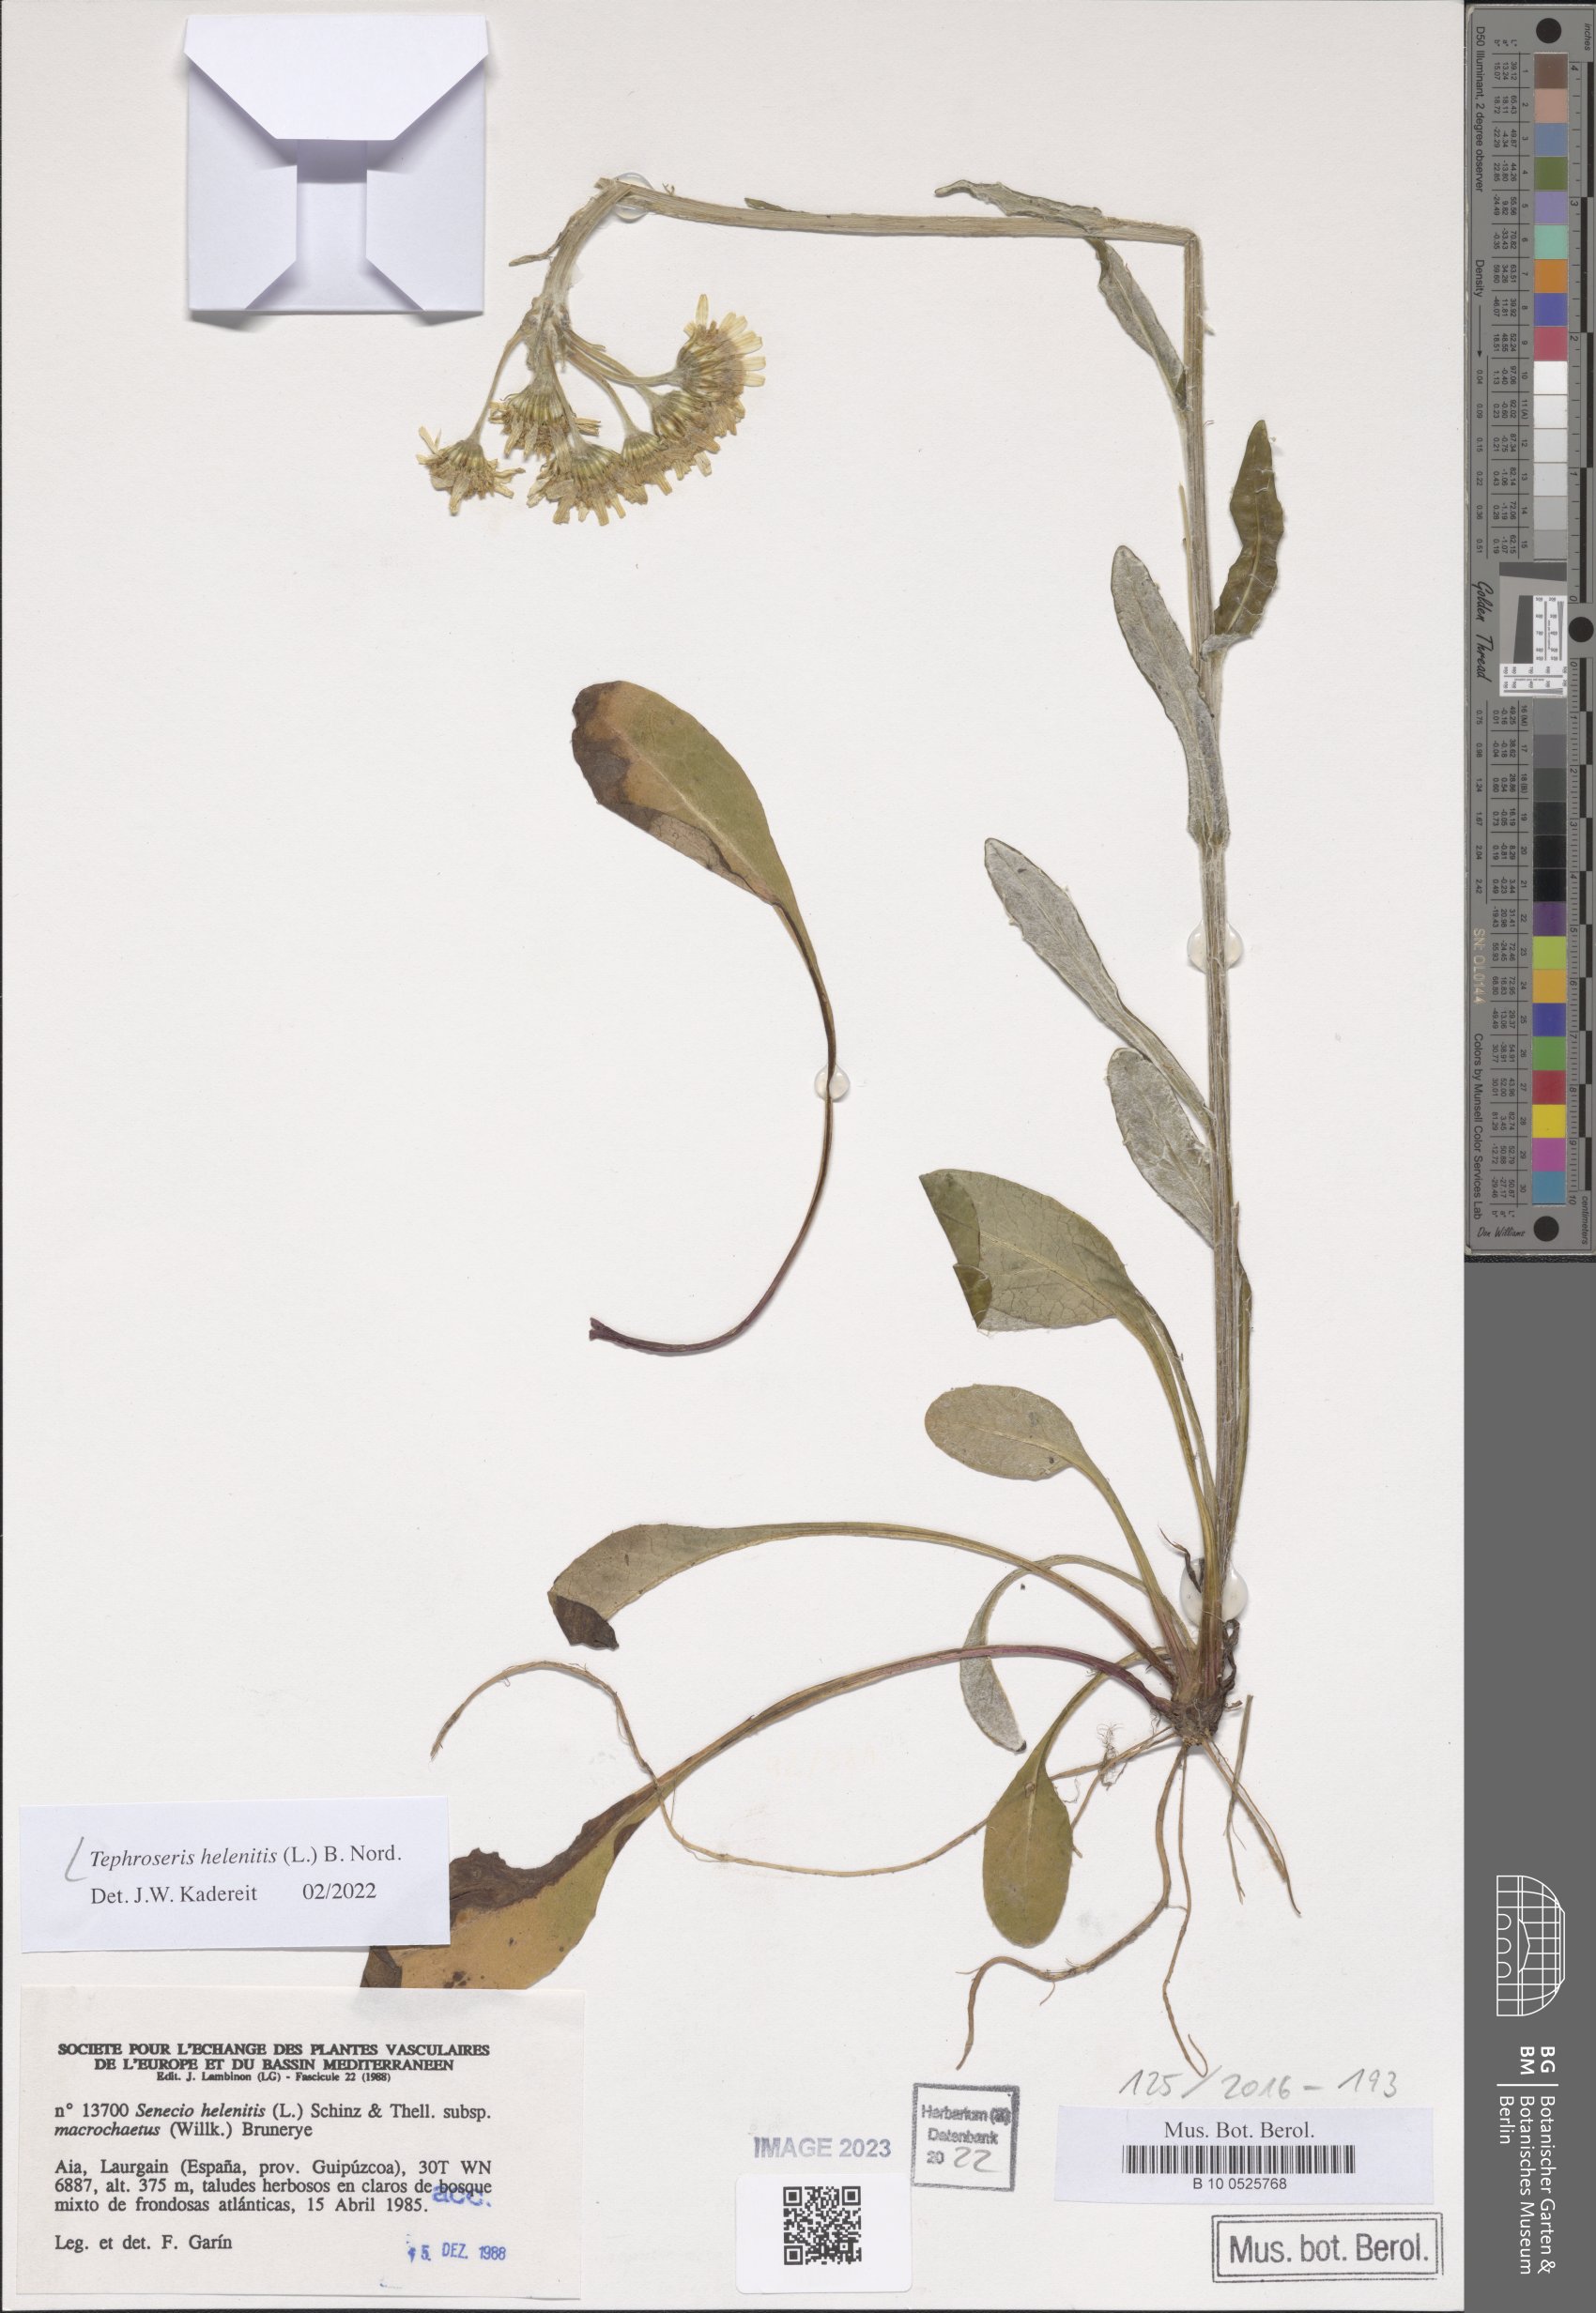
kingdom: Plantae
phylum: Tracheophyta
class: Magnoliopsida
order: Asterales
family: Asteraceae
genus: Tephroseris
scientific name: Tephroseris helenitis
